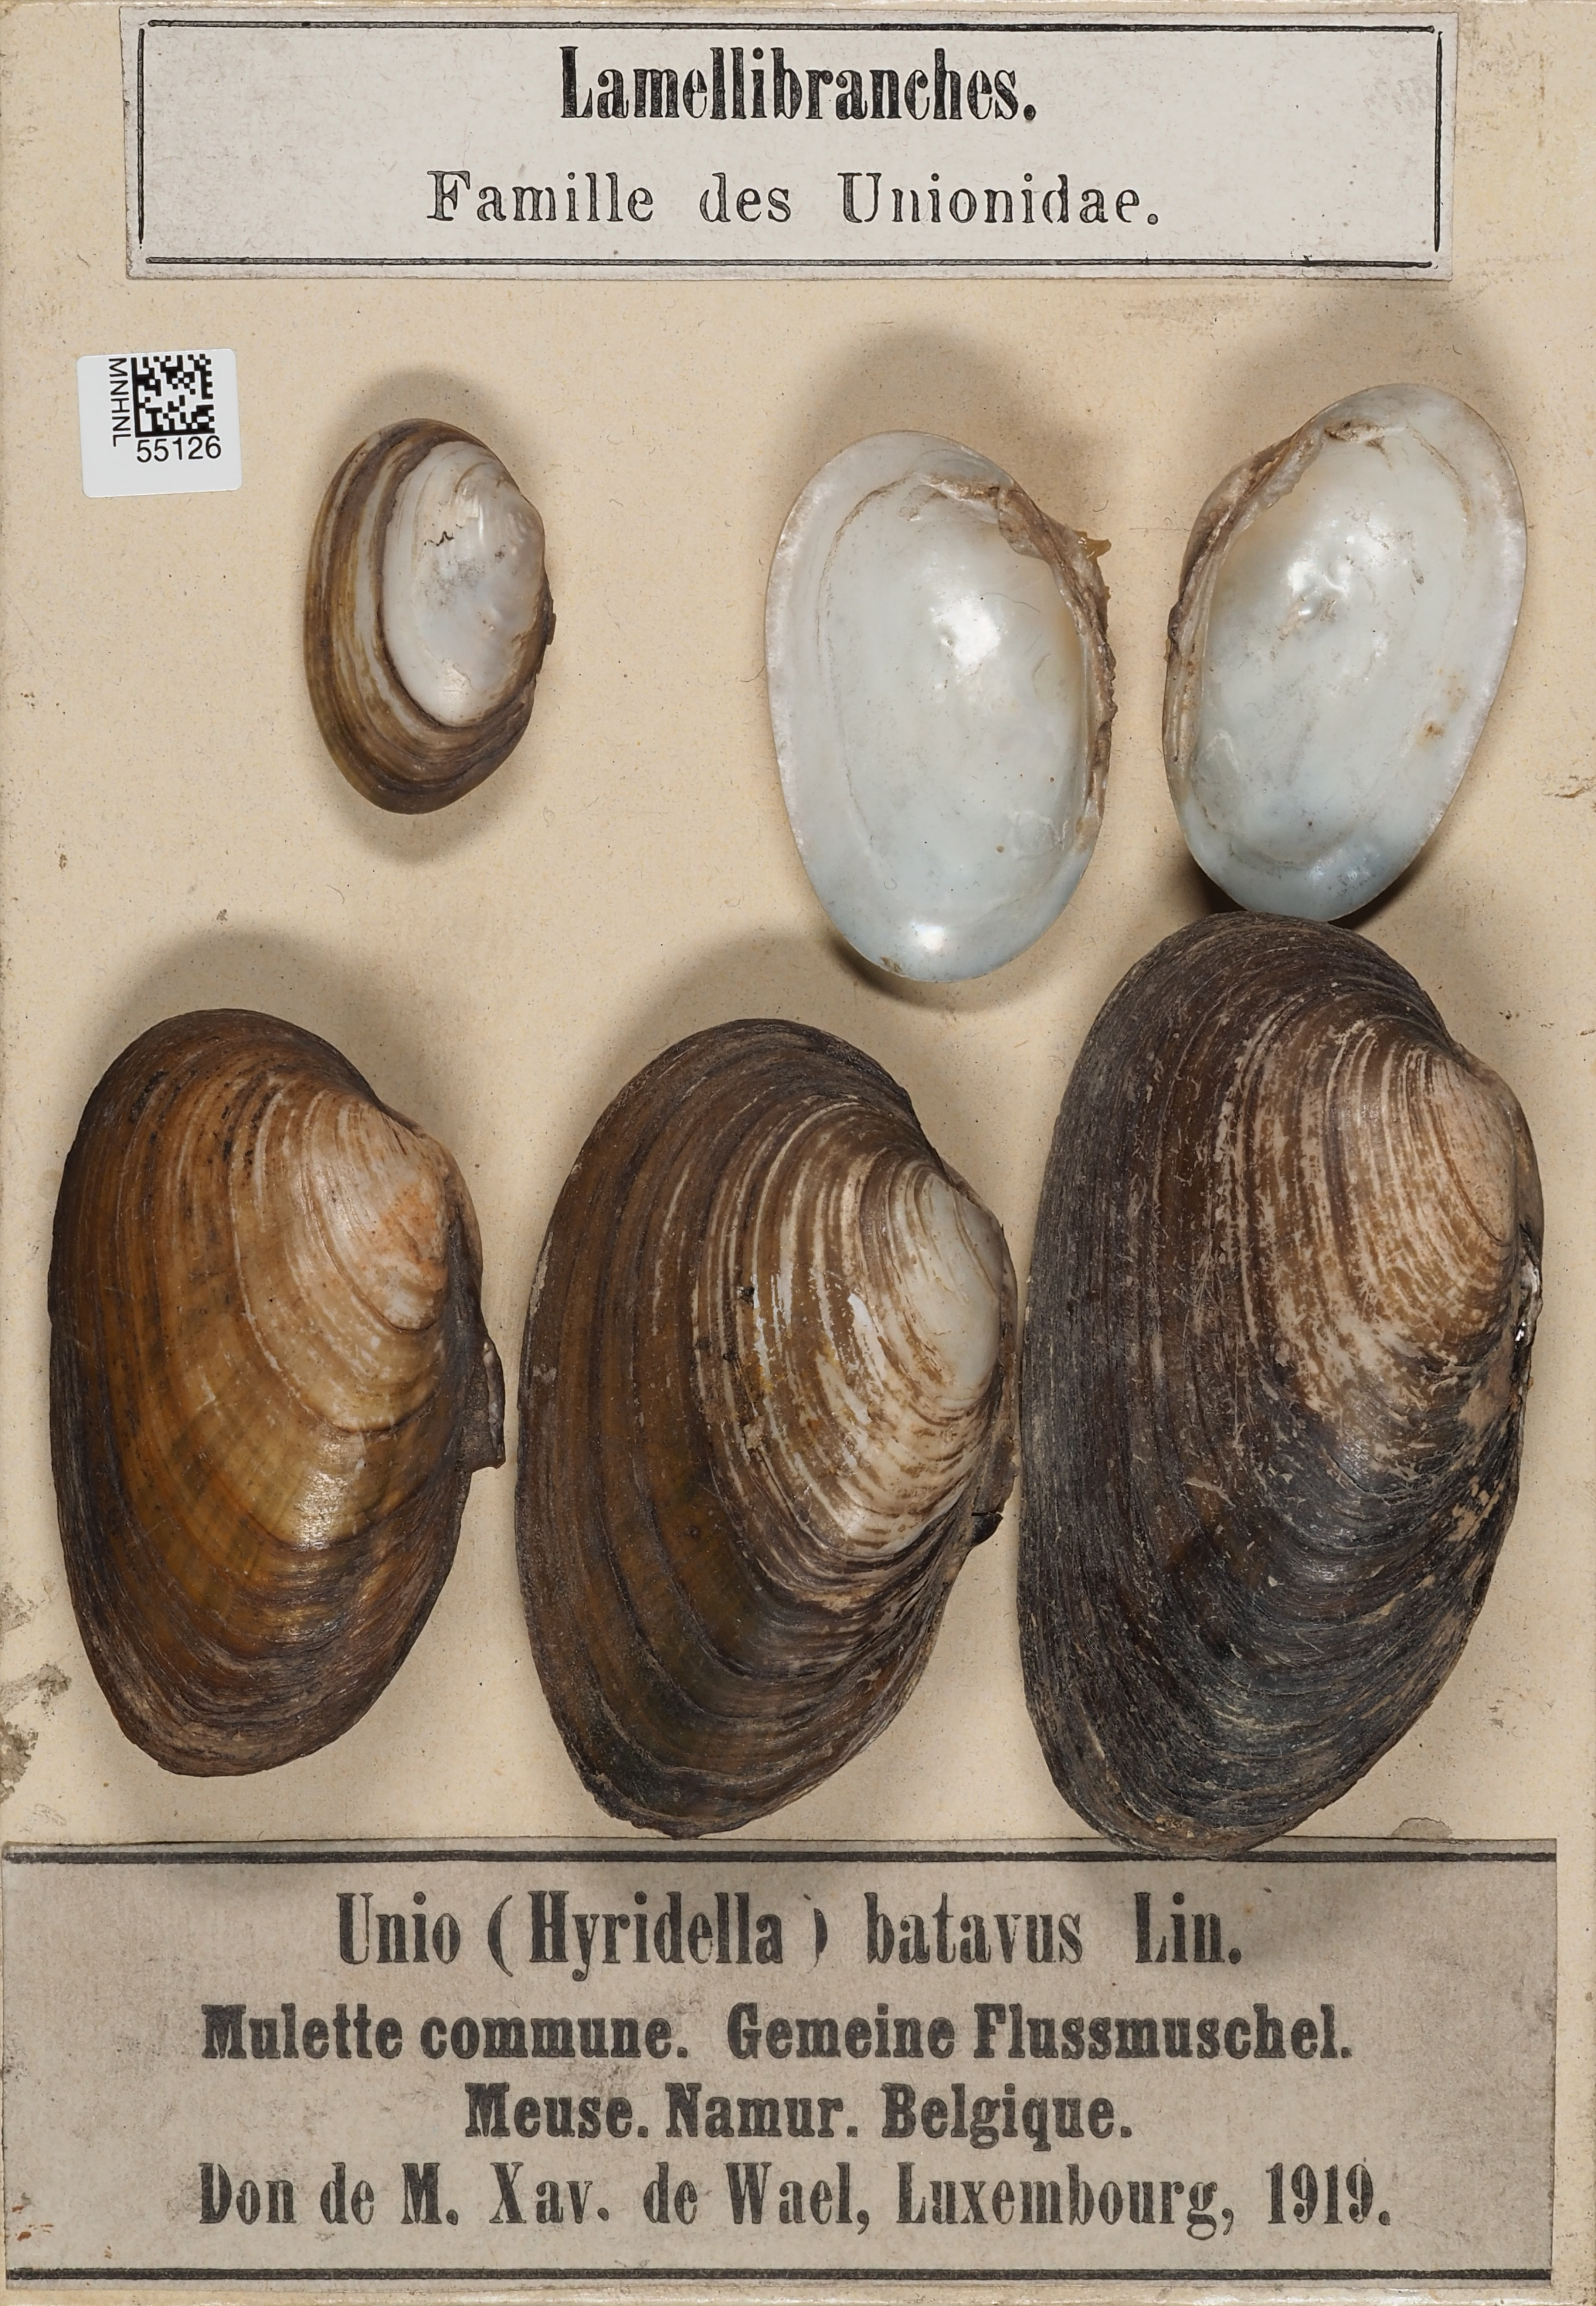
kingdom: Animalia
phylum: Mollusca
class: Bivalvia
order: Unionida
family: Unionidae
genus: Unio
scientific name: Unio
